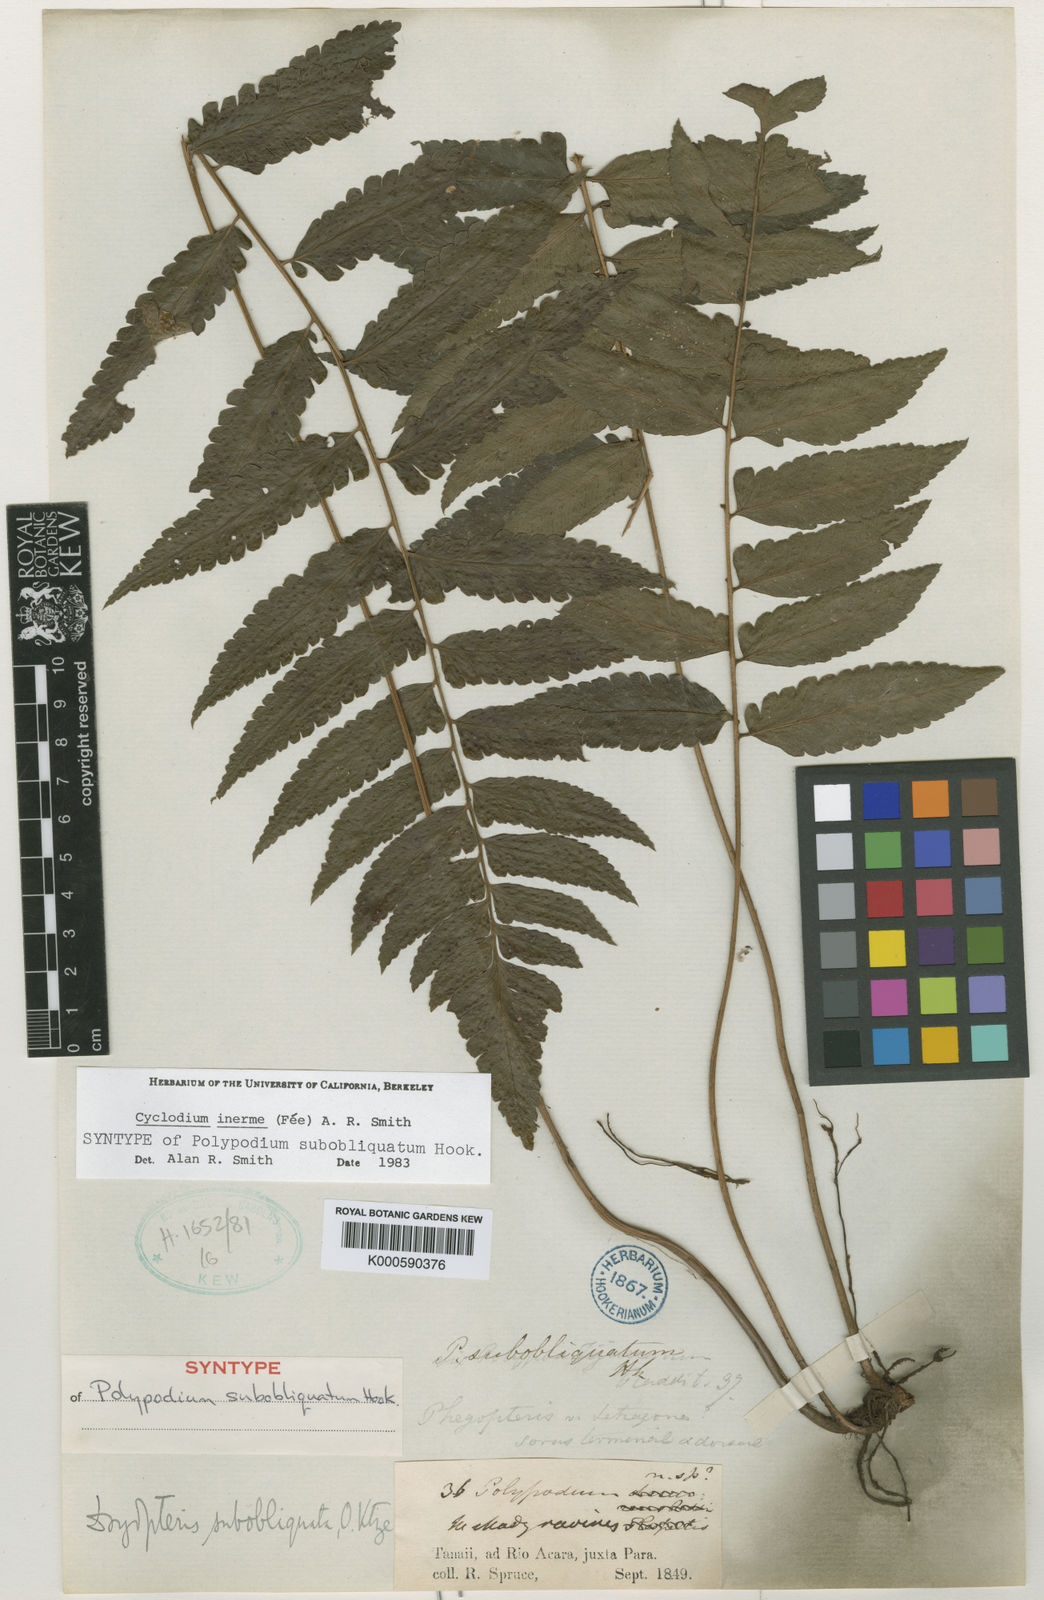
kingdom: Plantae
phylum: Tracheophyta
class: Polypodiopsida
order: Polypodiales
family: Dryopteridaceae
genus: Cyclodium
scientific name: Cyclodium
